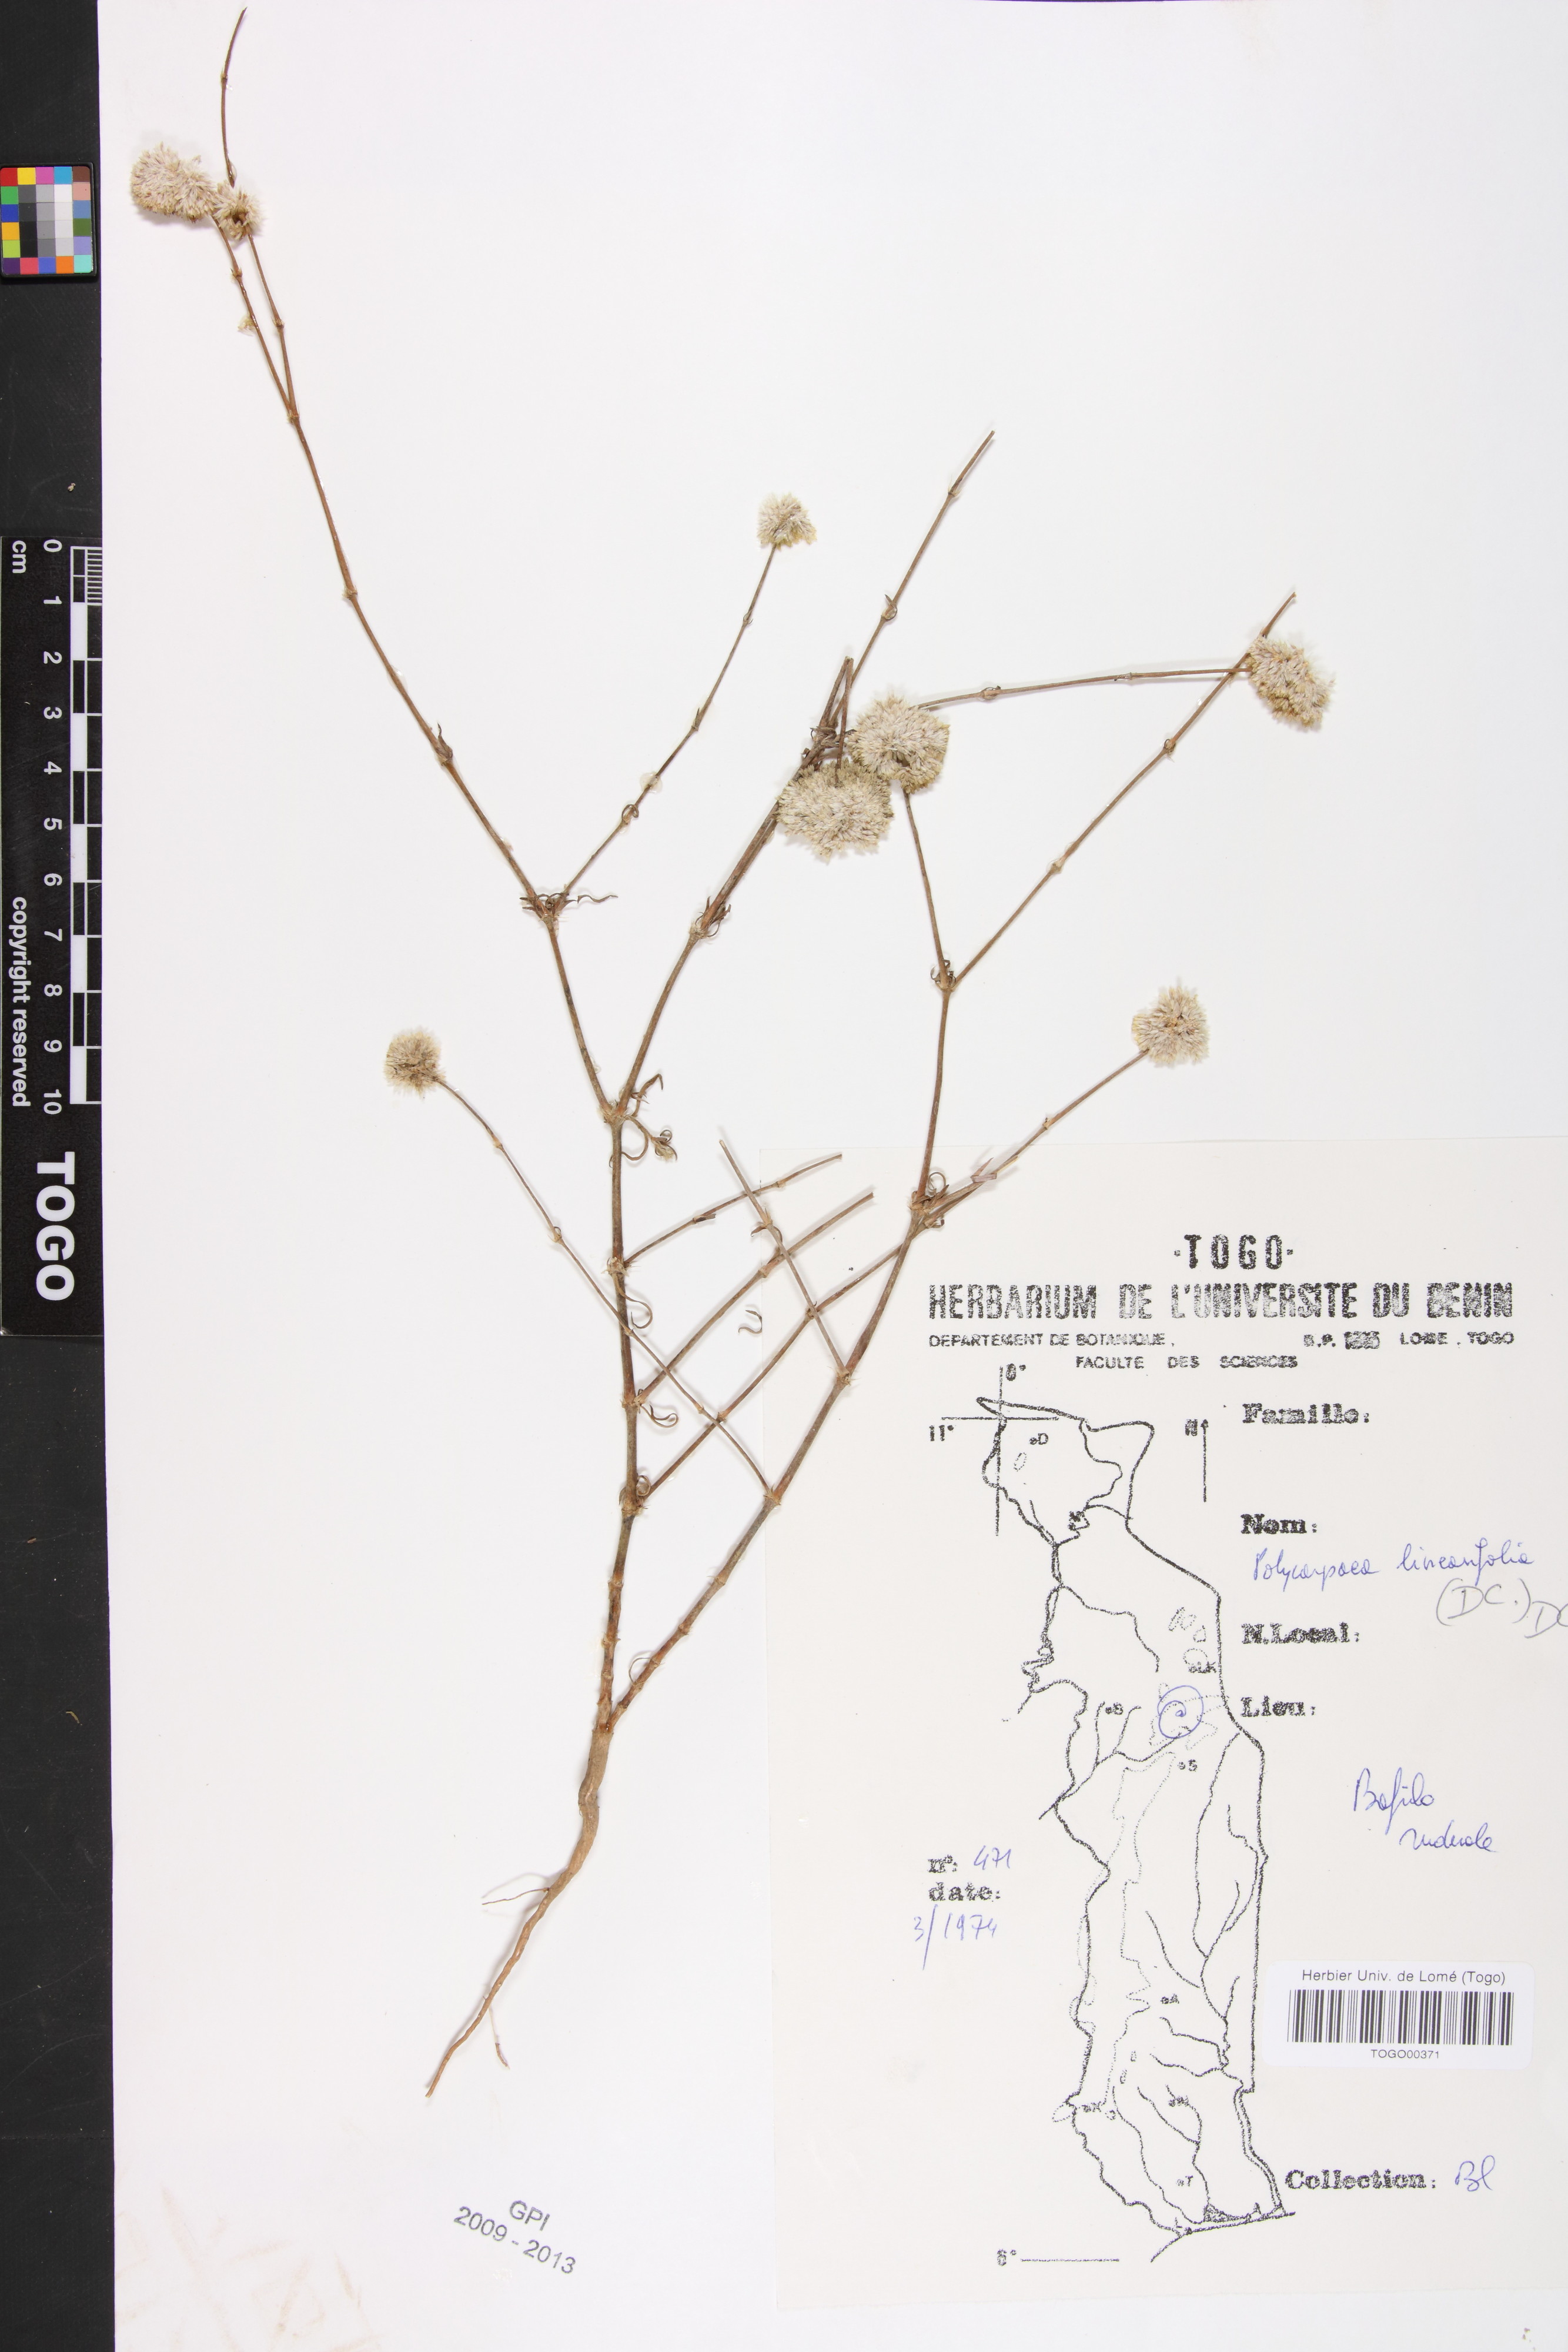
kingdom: Plantae
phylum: Tracheophyta
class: Magnoliopsida
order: Caryophyllales
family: Caryophyllaceae
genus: Polycarpaea
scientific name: Polycarpaea linearifolia
